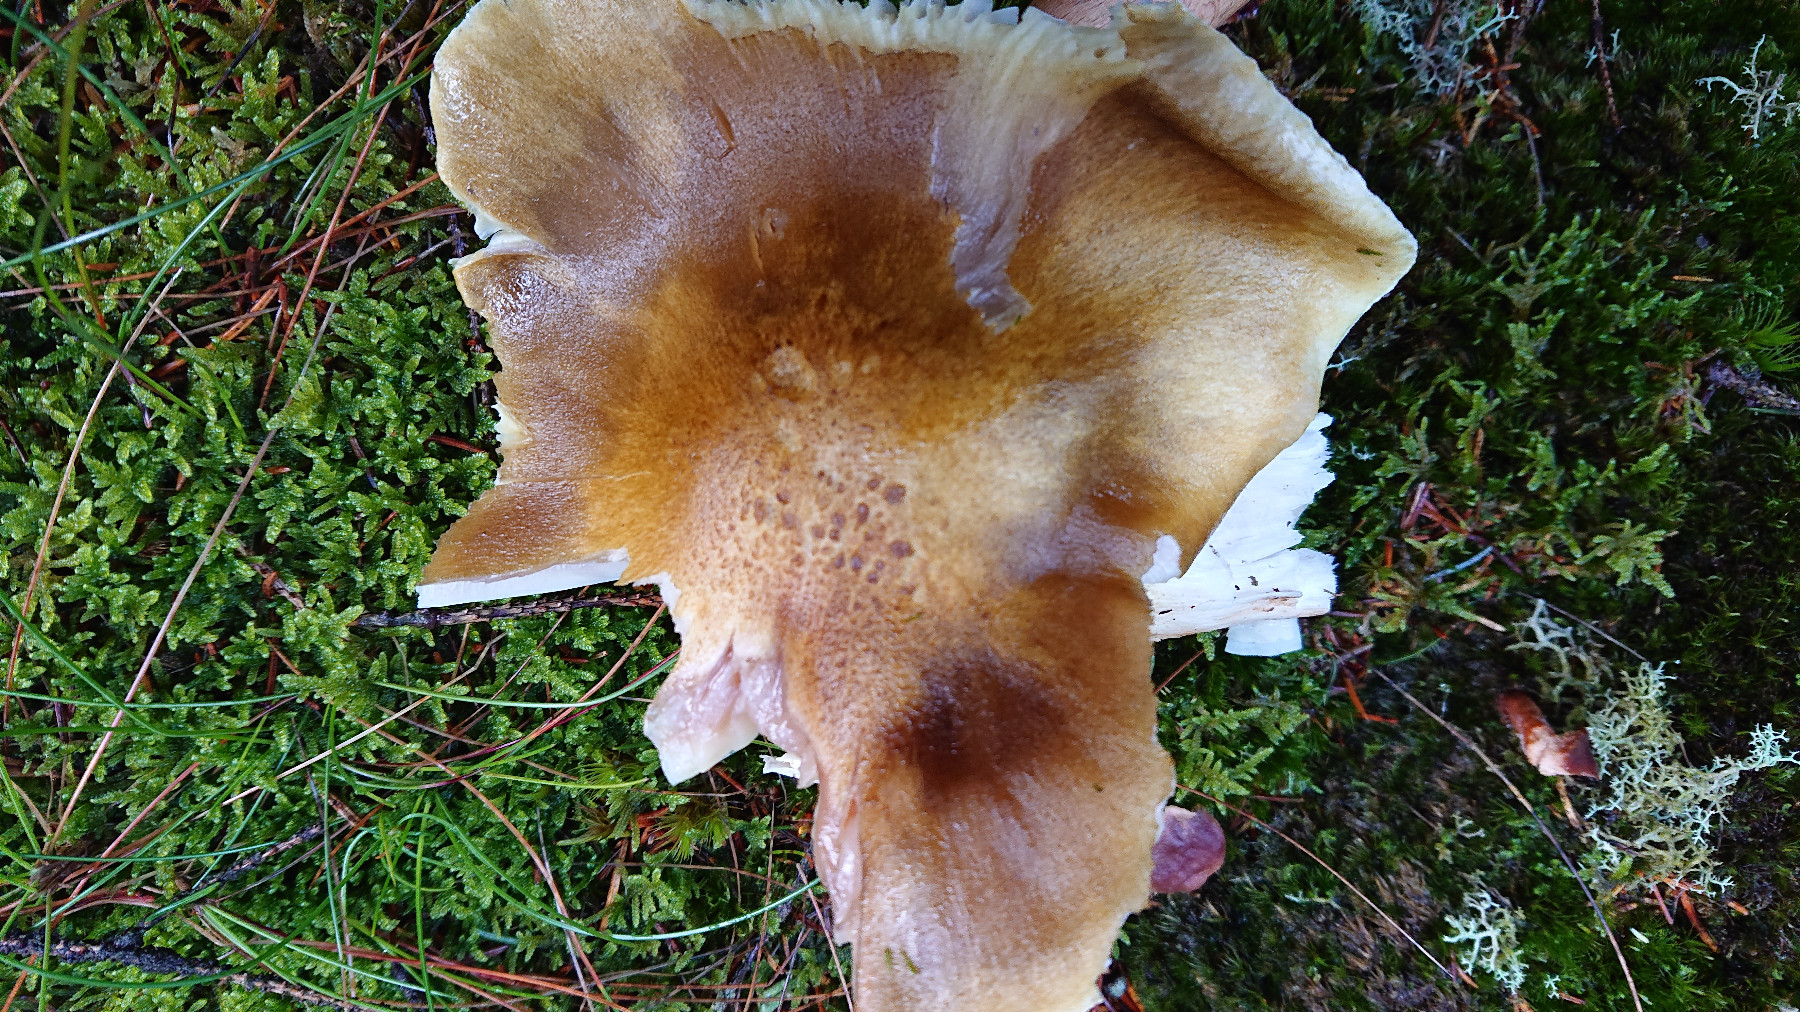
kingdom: Fungi
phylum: Basidiomycota
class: Agaricomycetes
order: Agaricales
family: Tricholomataceae
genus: Tricholoma
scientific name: Tricholoma arvernense
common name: kantet ridderhat
